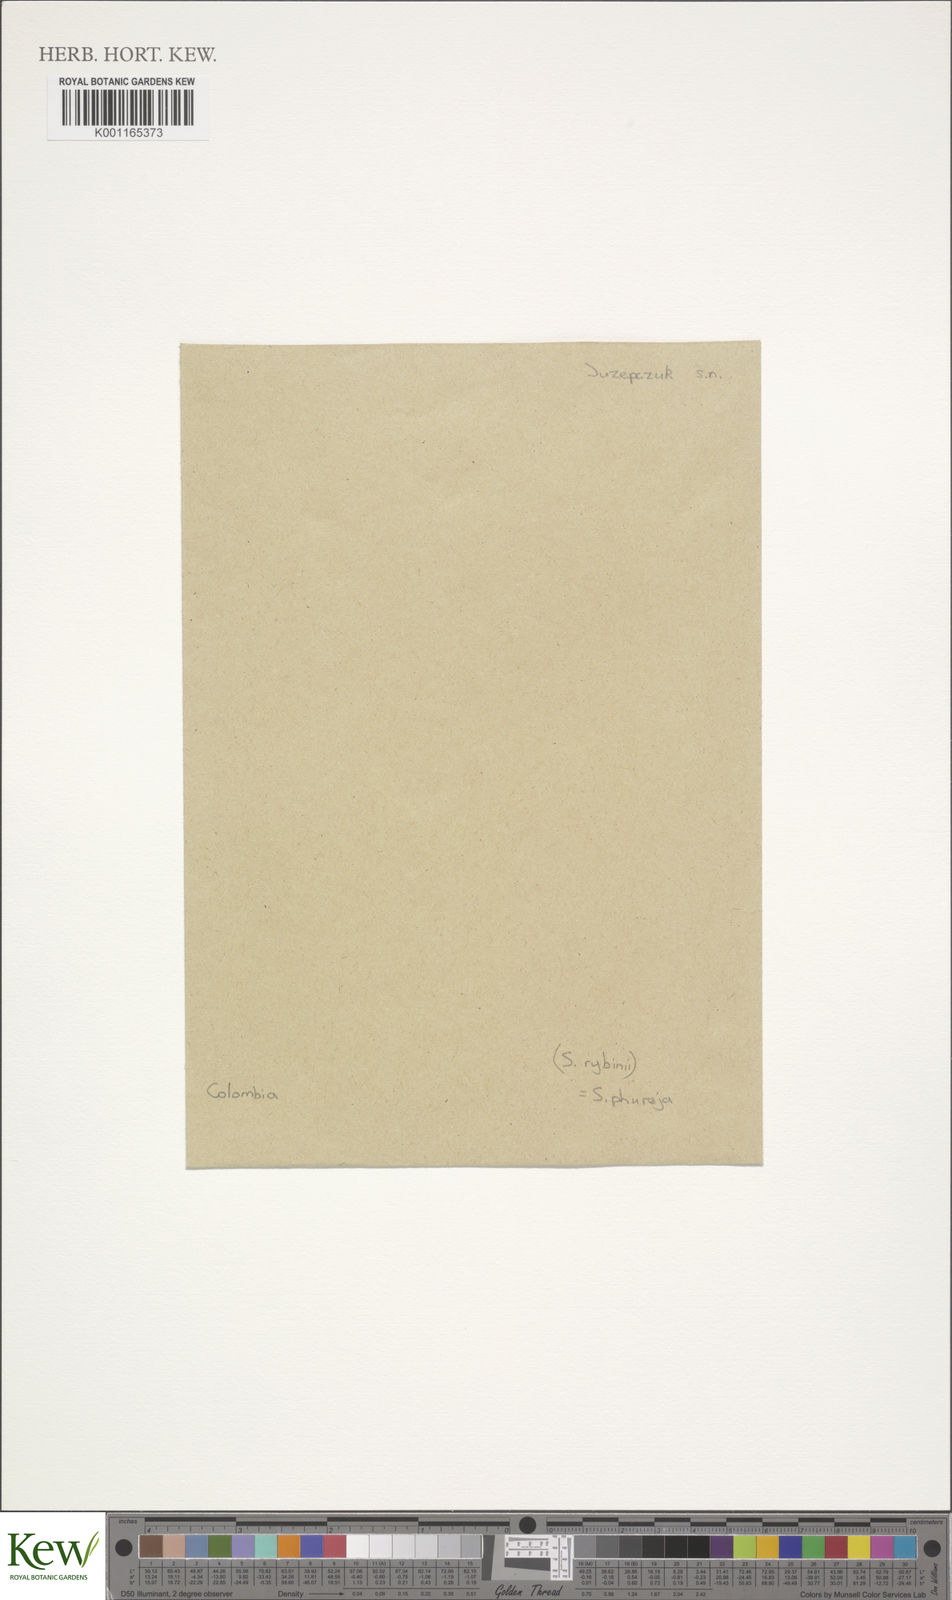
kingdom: Plantae
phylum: Tracheophyta
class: Magnoliopsida
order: Solanales
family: Solanaceae
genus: Solanum
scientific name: Solanum tuberosum
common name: Potato
